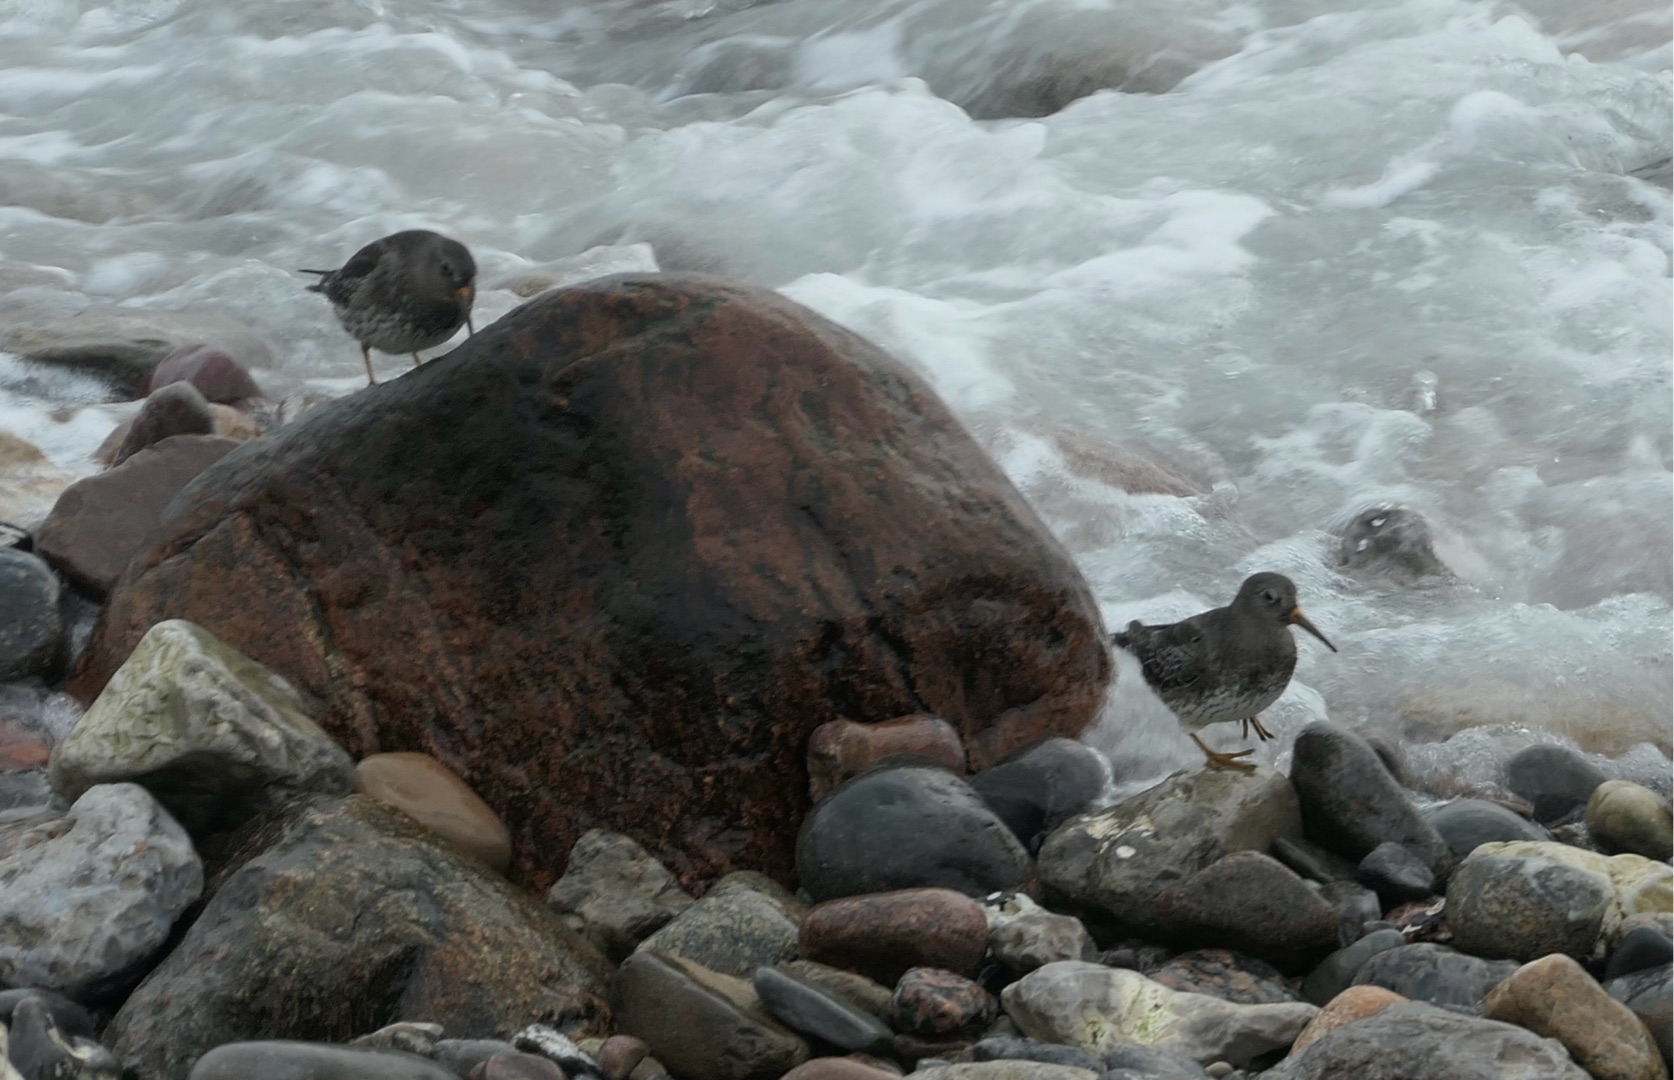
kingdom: Animalia
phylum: Chordata
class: Aves
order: Charadriiformes
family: Scolopacidae
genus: Calidris
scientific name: Calidris maritima
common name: Sortgrå ryle
